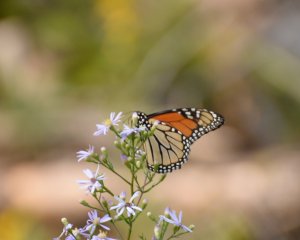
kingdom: Animalia
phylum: Arthropoda
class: Insecta
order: Lepidoptera
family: Nymphalidae
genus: Danaus
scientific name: Danaus plexippus
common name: Monarch
